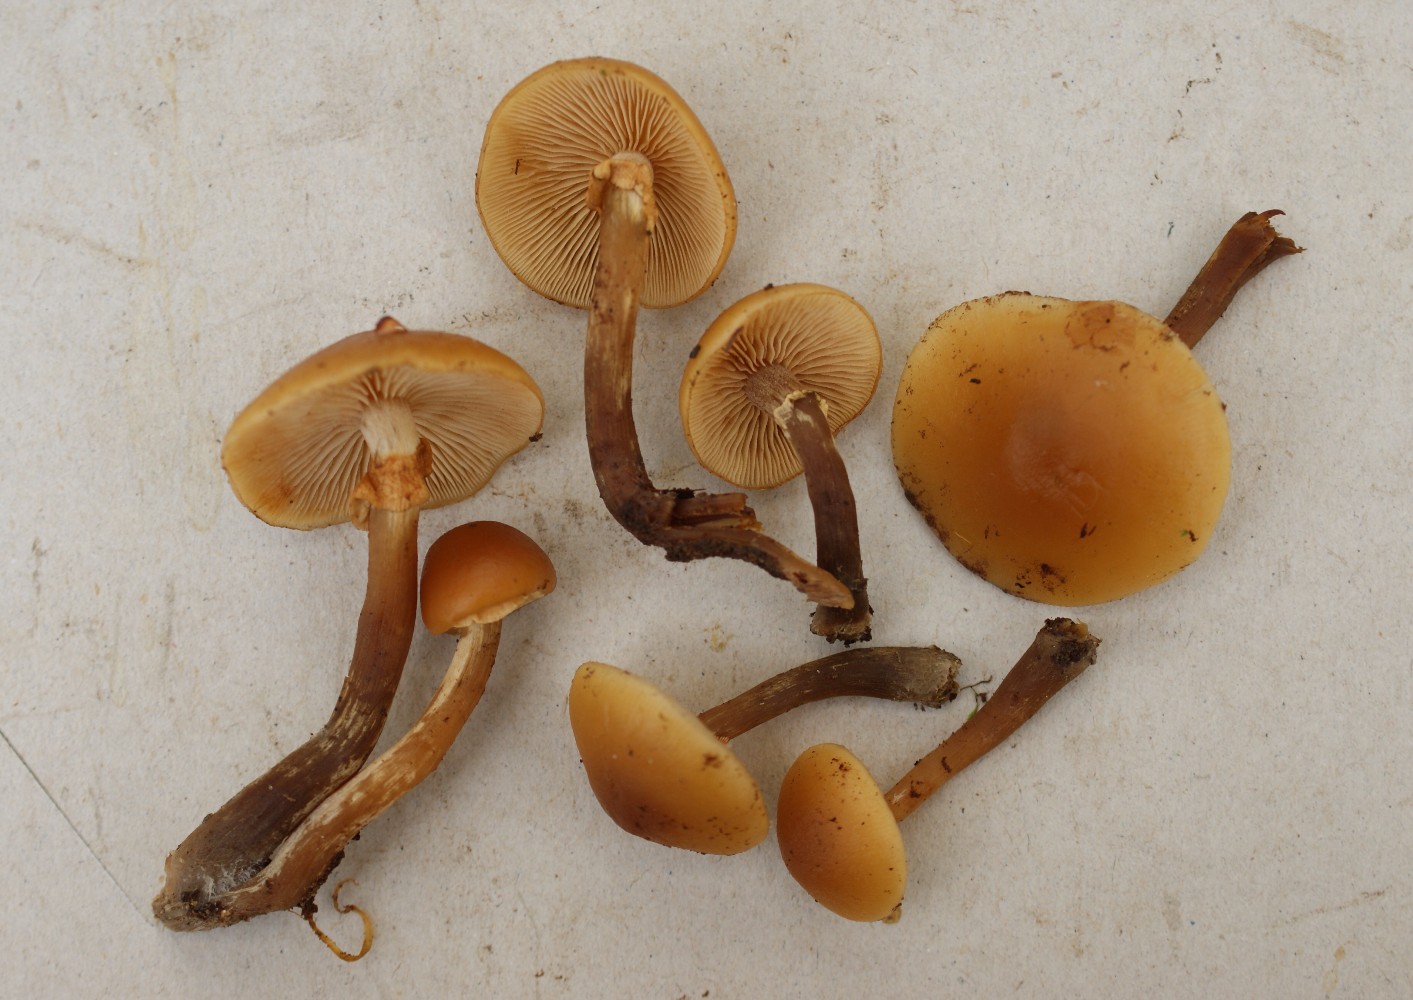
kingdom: Fungi
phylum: Basidiomycota
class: Agaricomycetes
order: Agaricales
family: Hymenogastraceae
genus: Galerina
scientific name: Galerina marginata
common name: randbæltet hjelmhat
